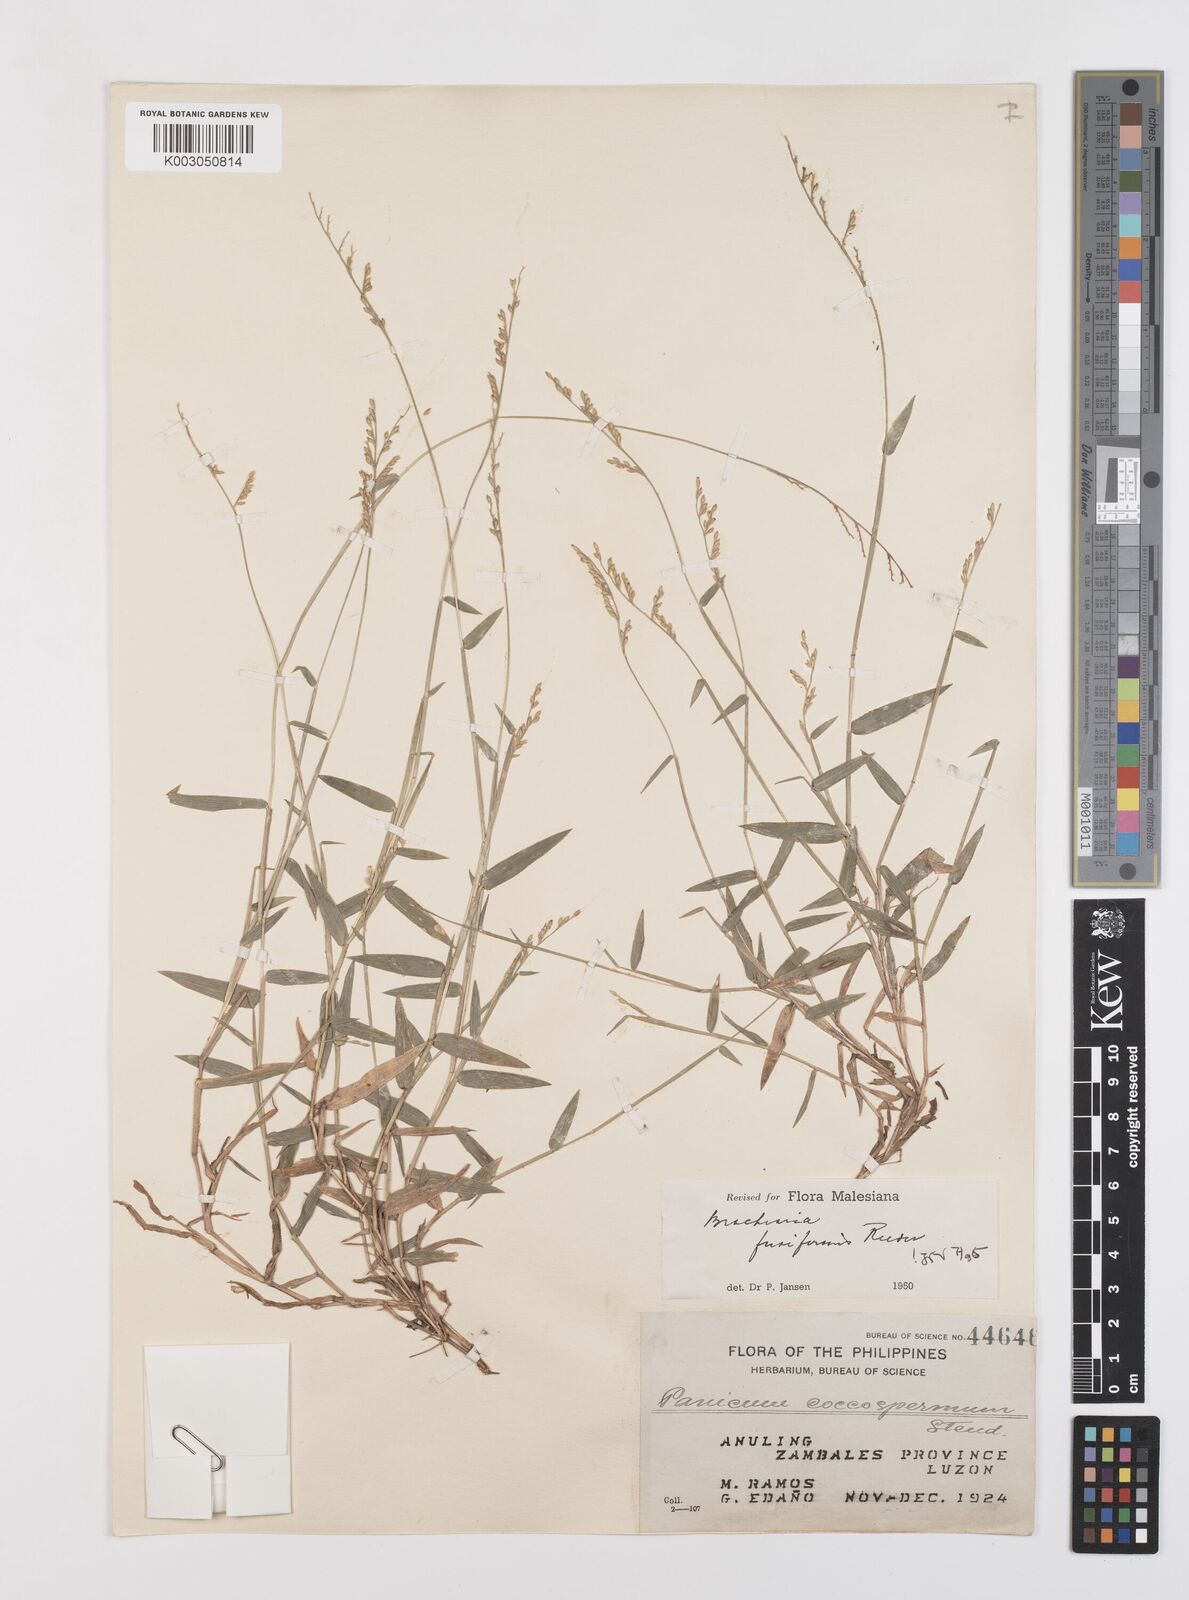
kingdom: Plantae
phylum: Tracheophyta
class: Liliopsida
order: Poales
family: Poaceae
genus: Urochloa
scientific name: Urochloa fusiformis
